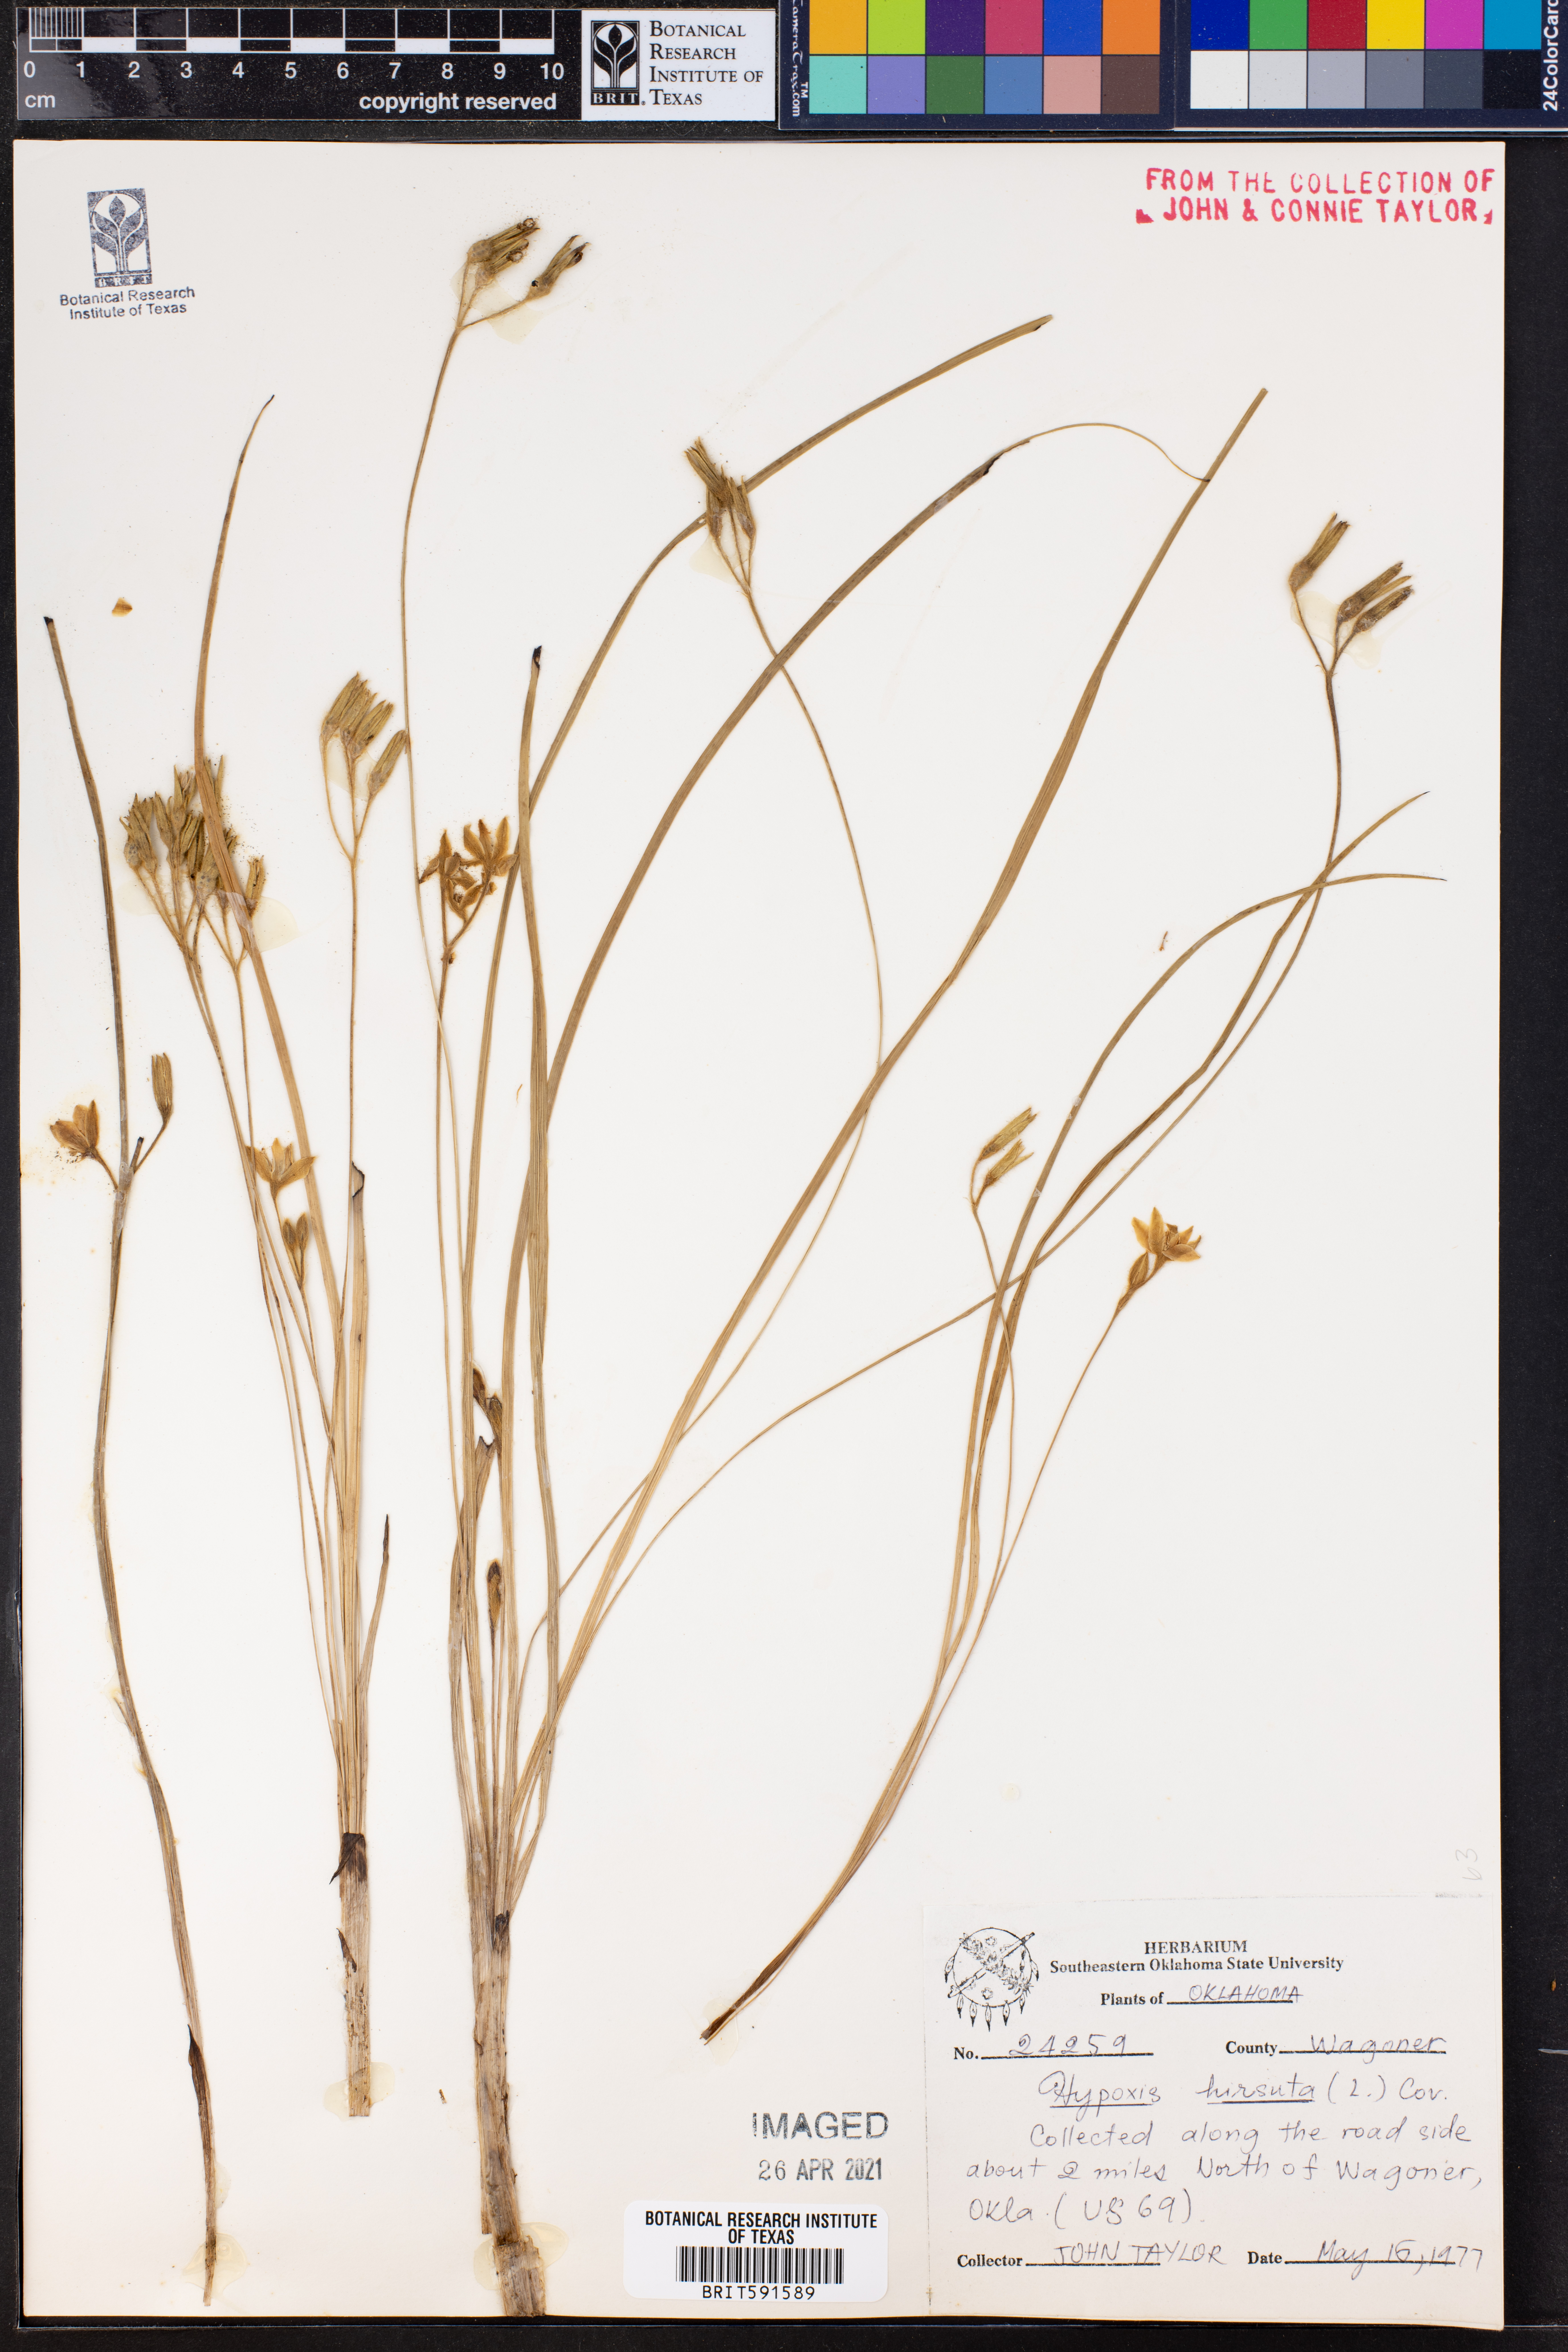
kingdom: Plantae
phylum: Tracheophyta
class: Liliopsida
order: Asparagales
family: Hypoxidaceae
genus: Hypoxis
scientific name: Hypoxis hirsuta
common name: Common goldstar
